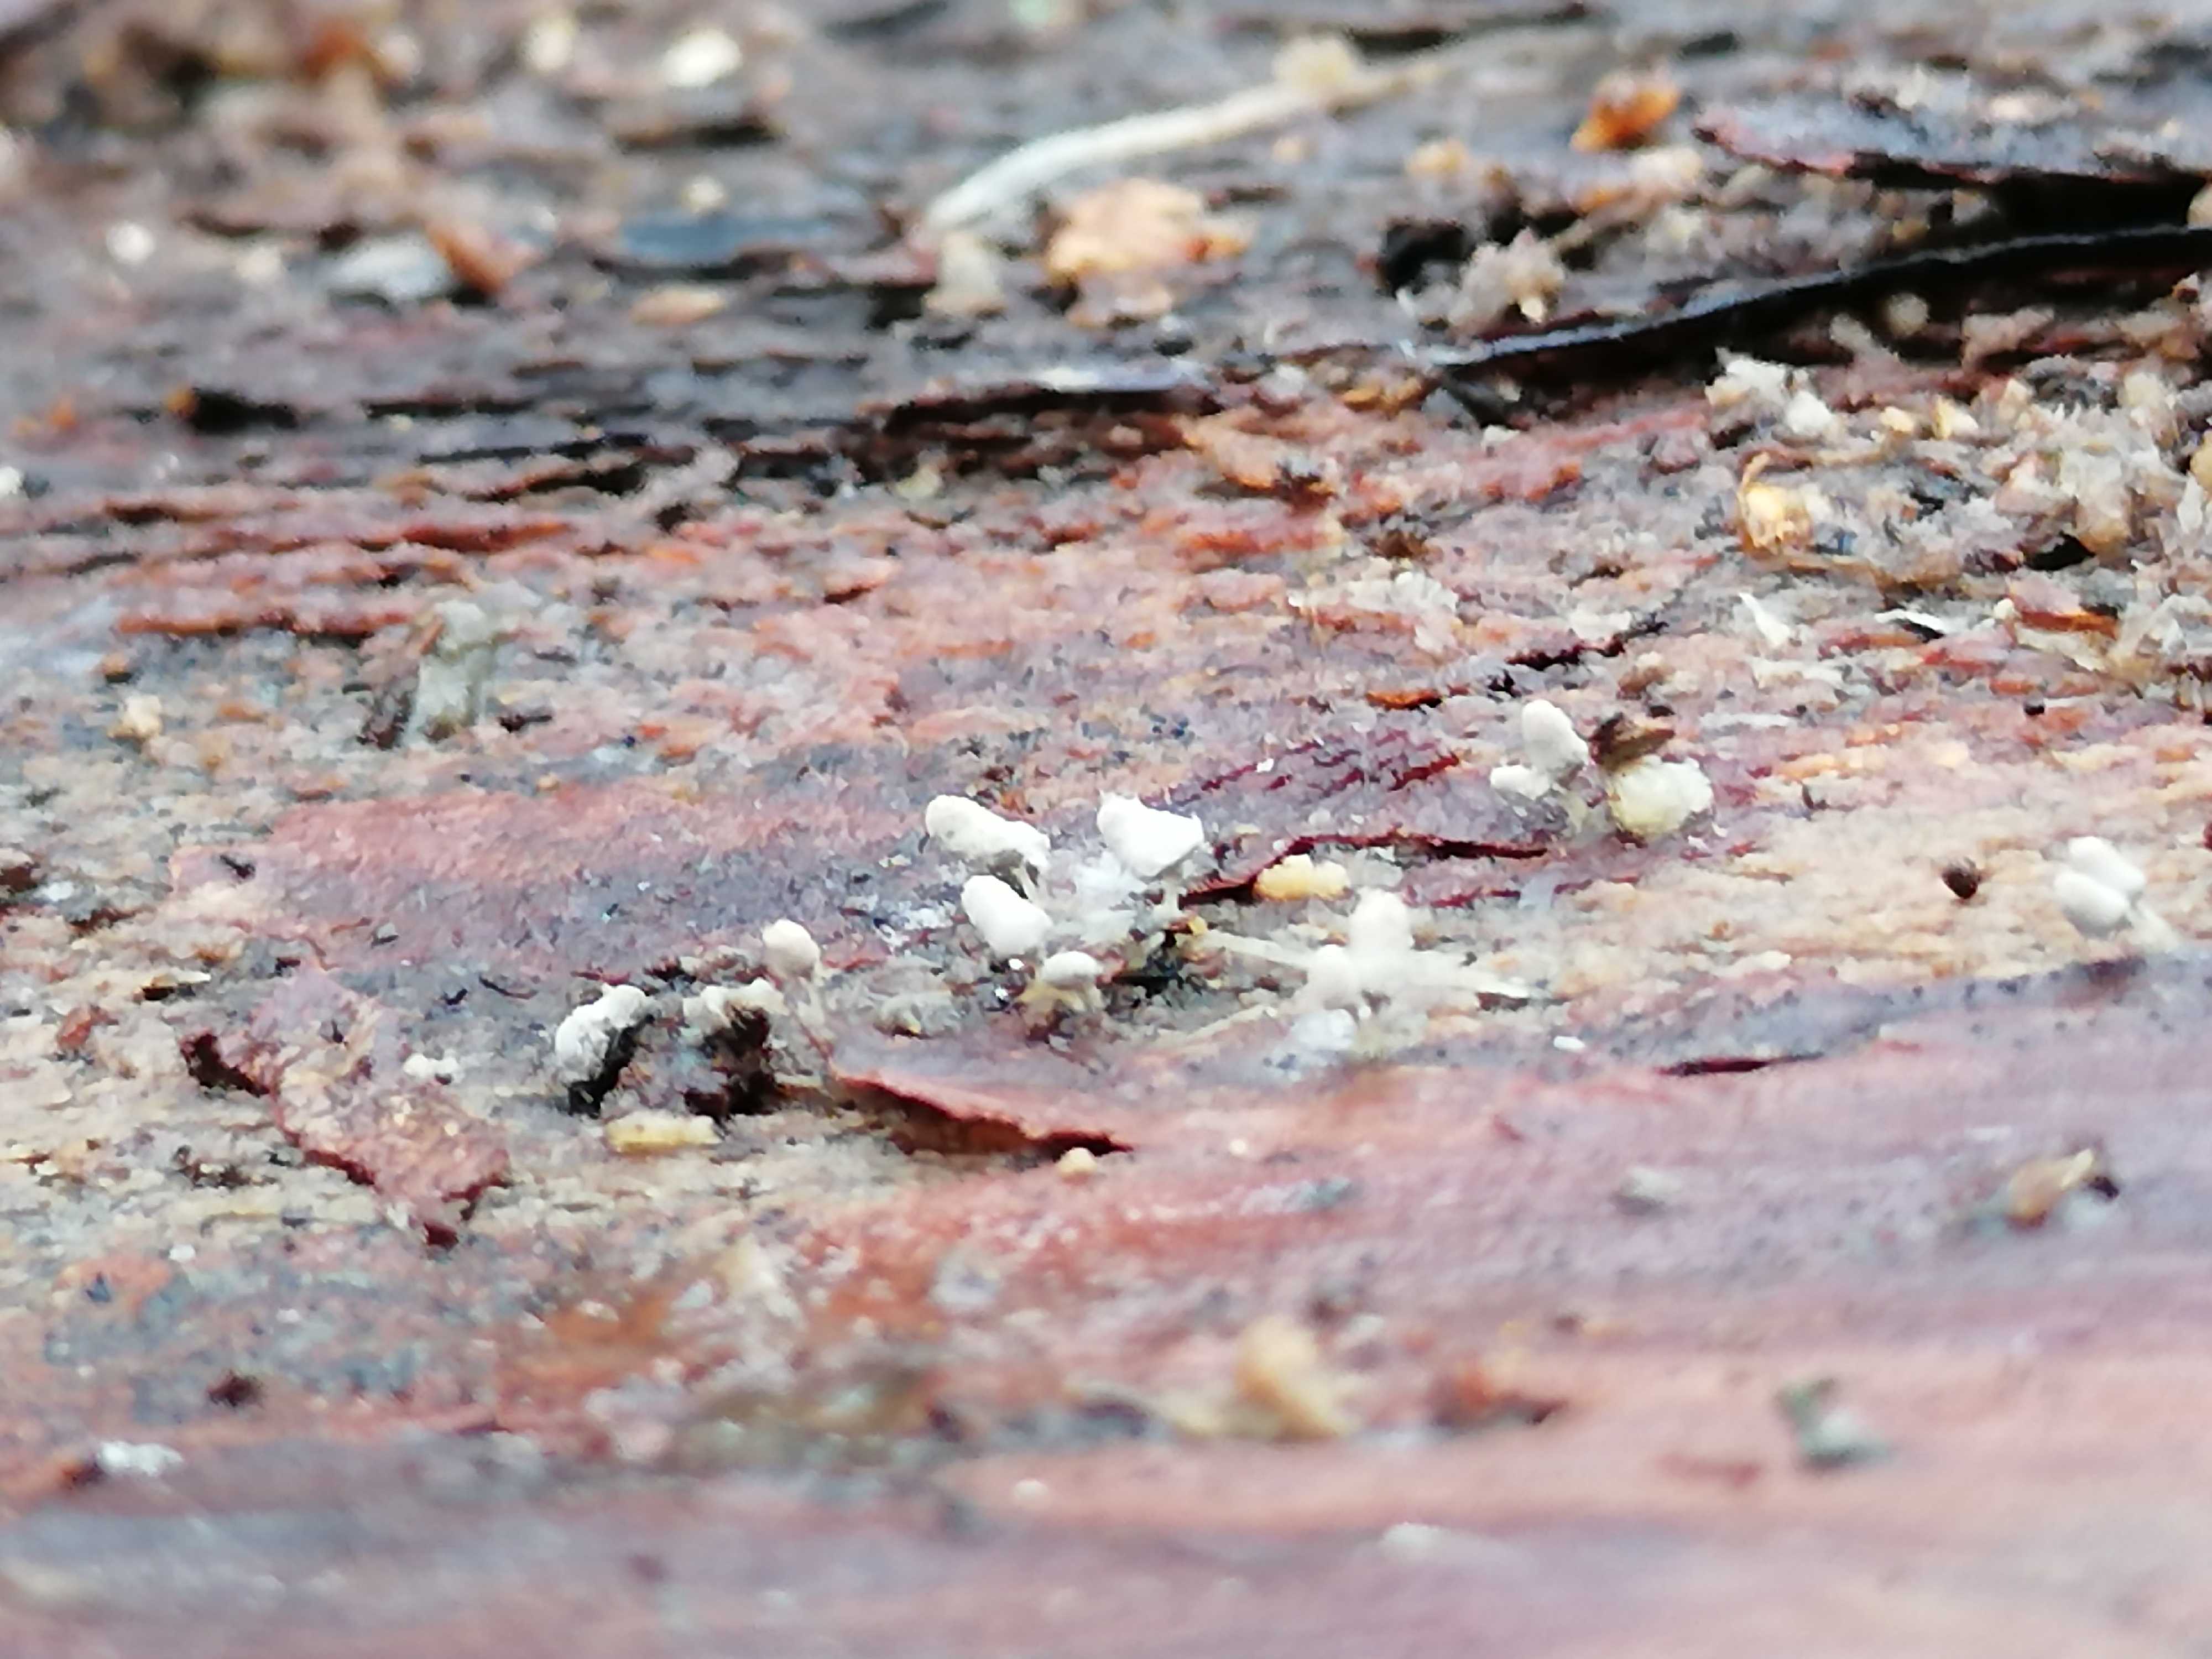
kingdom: Protozoa
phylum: Mycetozoa
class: Myxomycetes
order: Trichiales
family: Arcyriaceae
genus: Arcyria
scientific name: Arcyria cinerea
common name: White carnival candy slime mold
